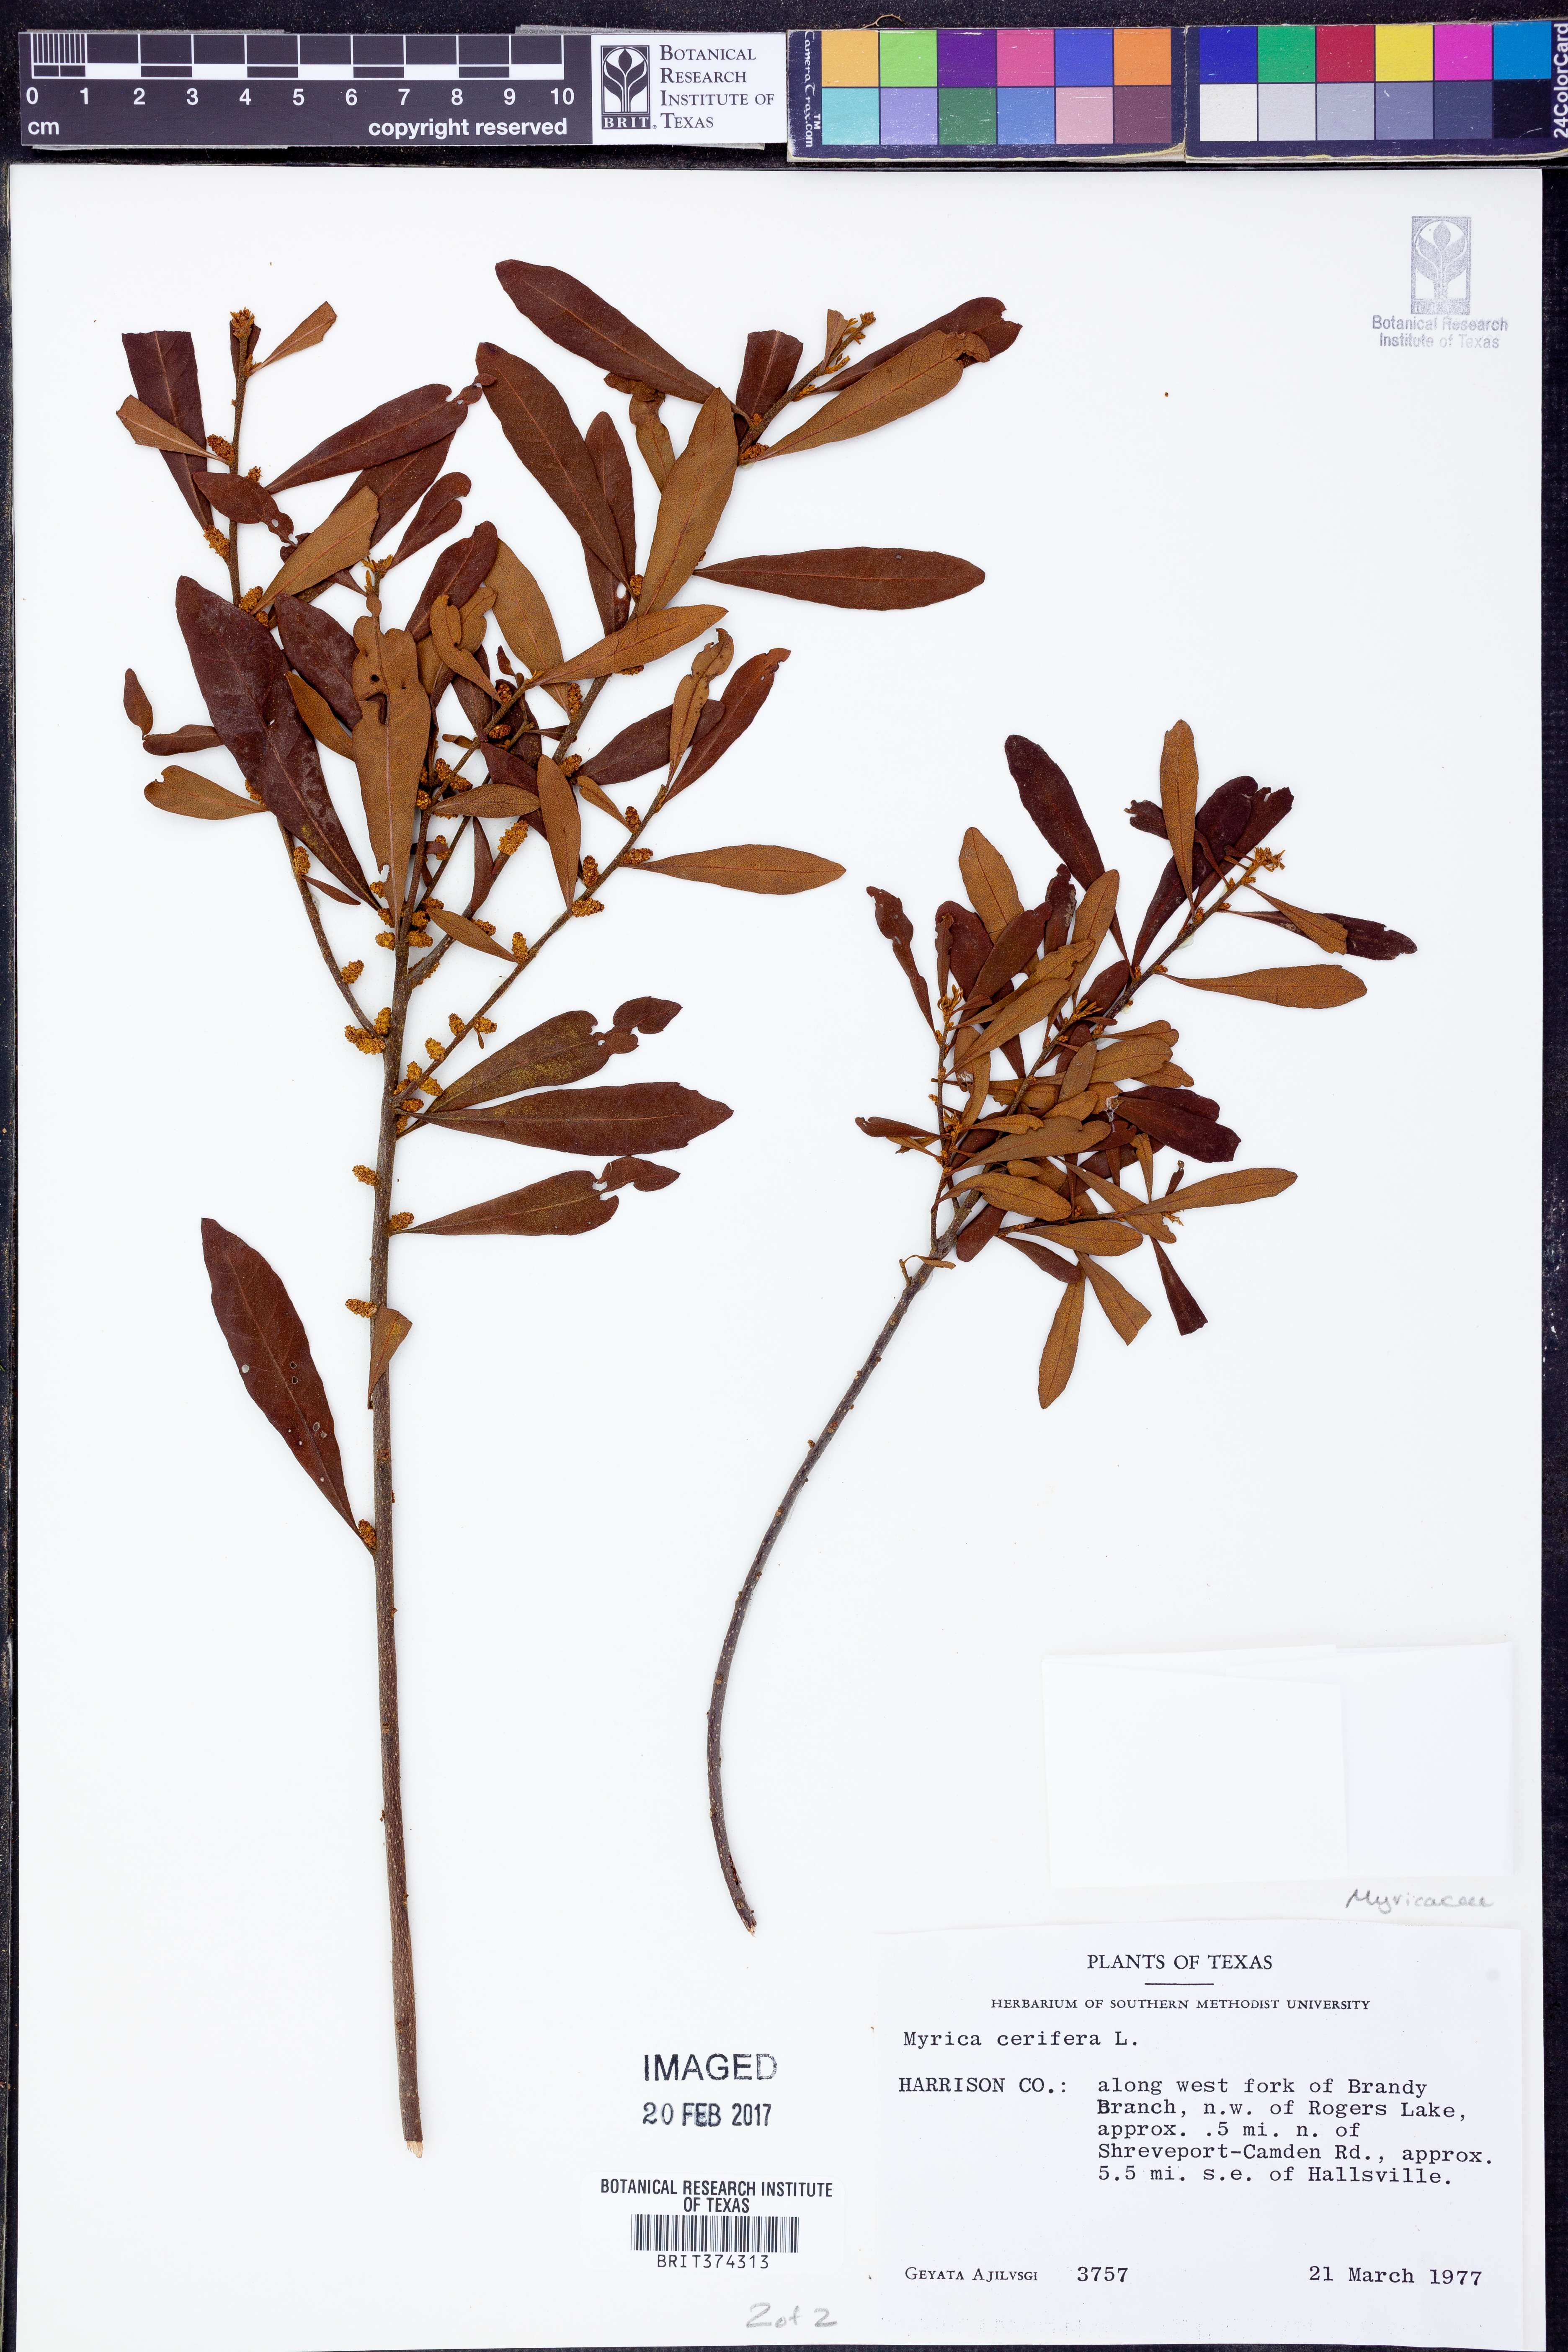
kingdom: Plantae
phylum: Tracheophyta
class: Magnoliopsida
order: Fagales
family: Myricaceae
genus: Morella
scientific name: Morella cerifera
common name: Wax myrtle
